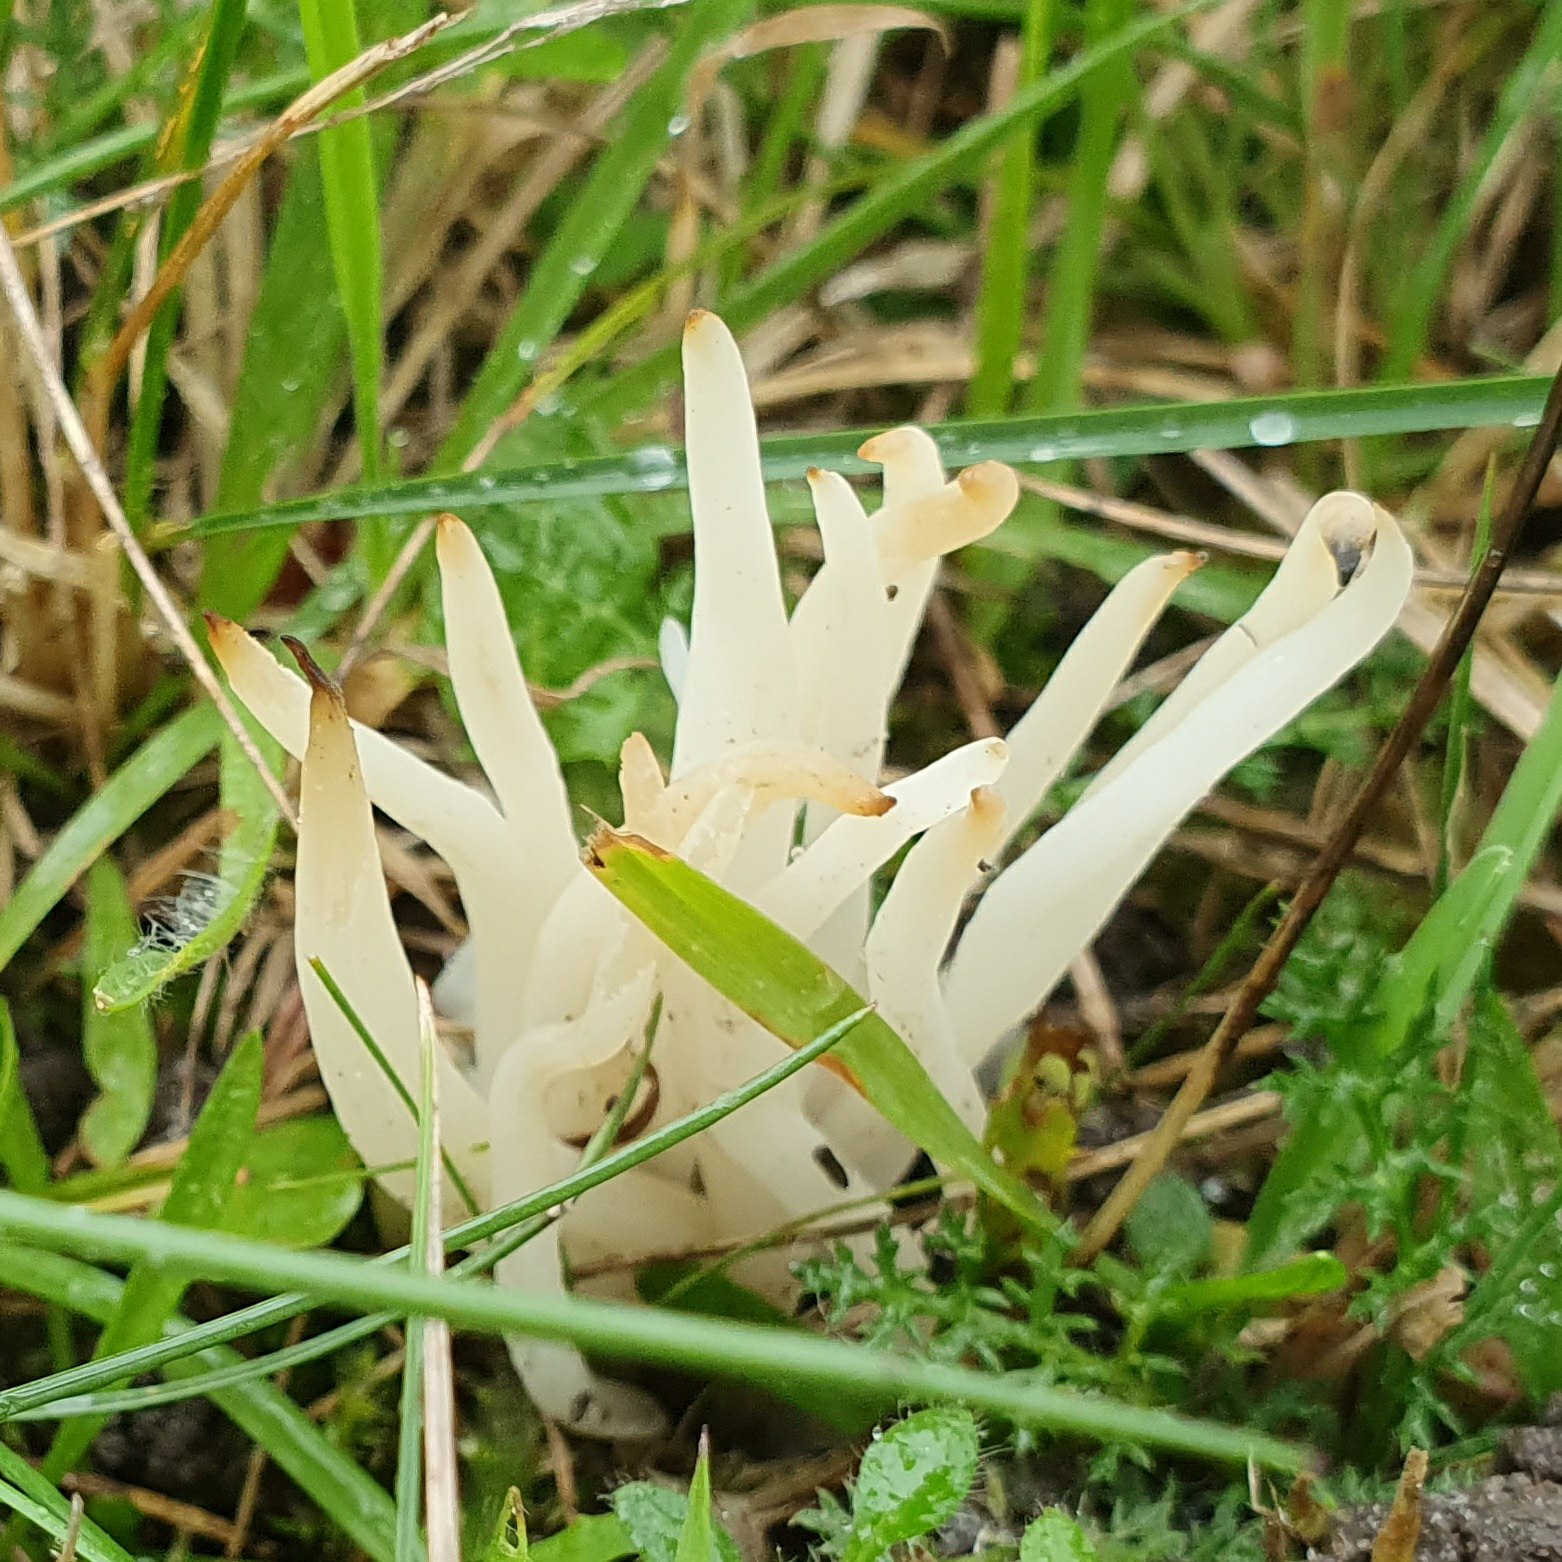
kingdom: Fungi
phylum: Basidiomycota
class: Agaricomycetes
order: Agaricales
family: Clavariaceae
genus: Clavaria
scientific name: Clavaria falcata
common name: hvid køllesvamp
